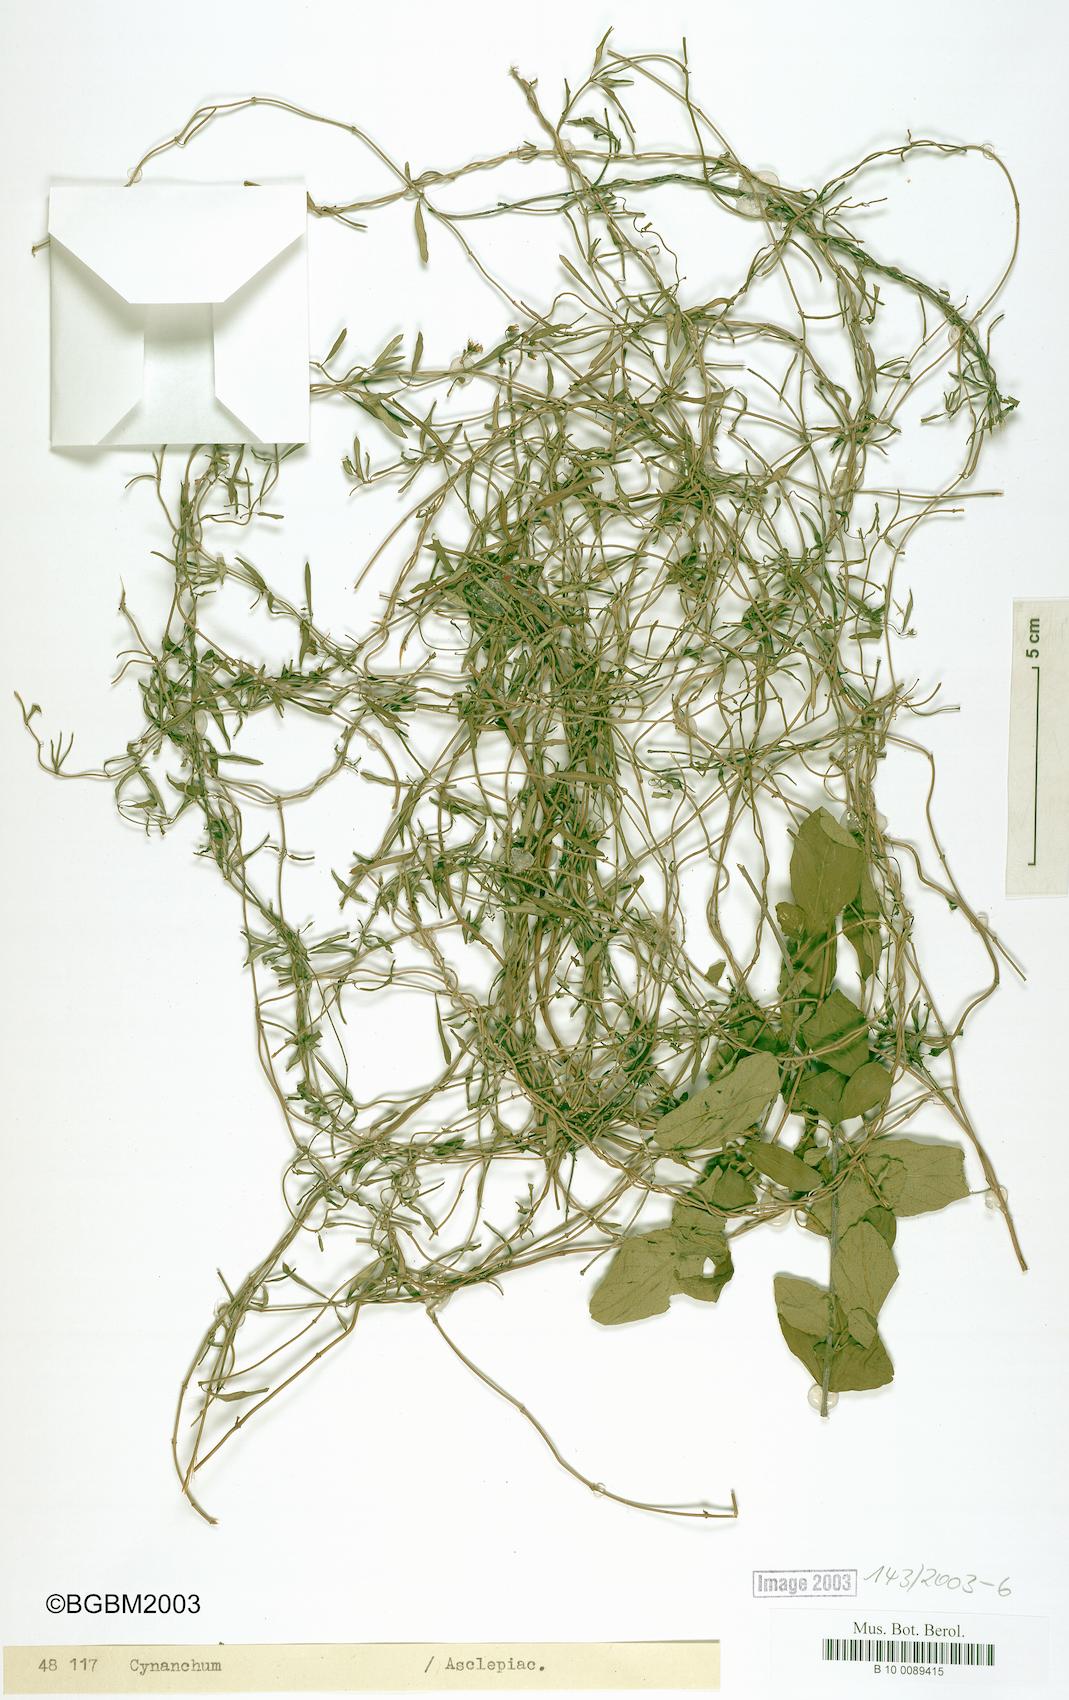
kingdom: Plantae
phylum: Tracheophyta
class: Magnoliopsida
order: Gentianales
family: Apocynaceae
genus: Metastelma
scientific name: Metastelma penicillatum
